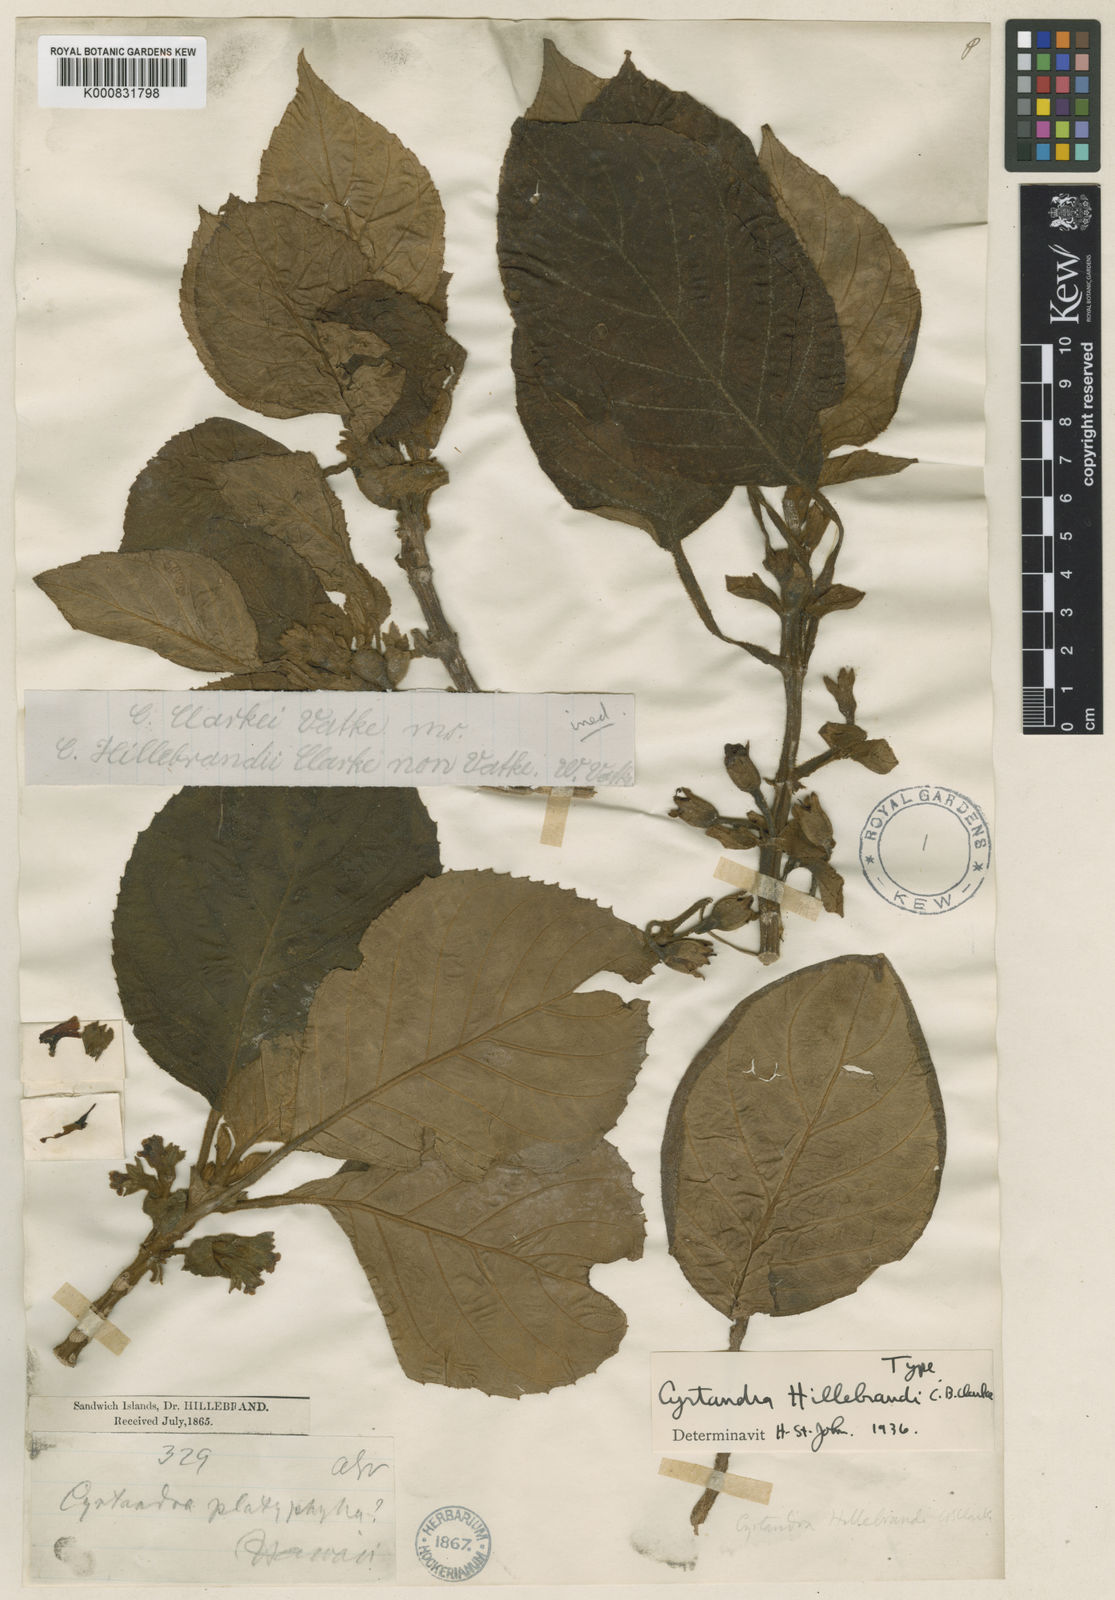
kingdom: Plantae
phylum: Tracheophyta
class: Magnoliopsida
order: Lamiales
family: Gesneriaceae
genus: Cyrtandra
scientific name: Cyrtandra platyphylla
